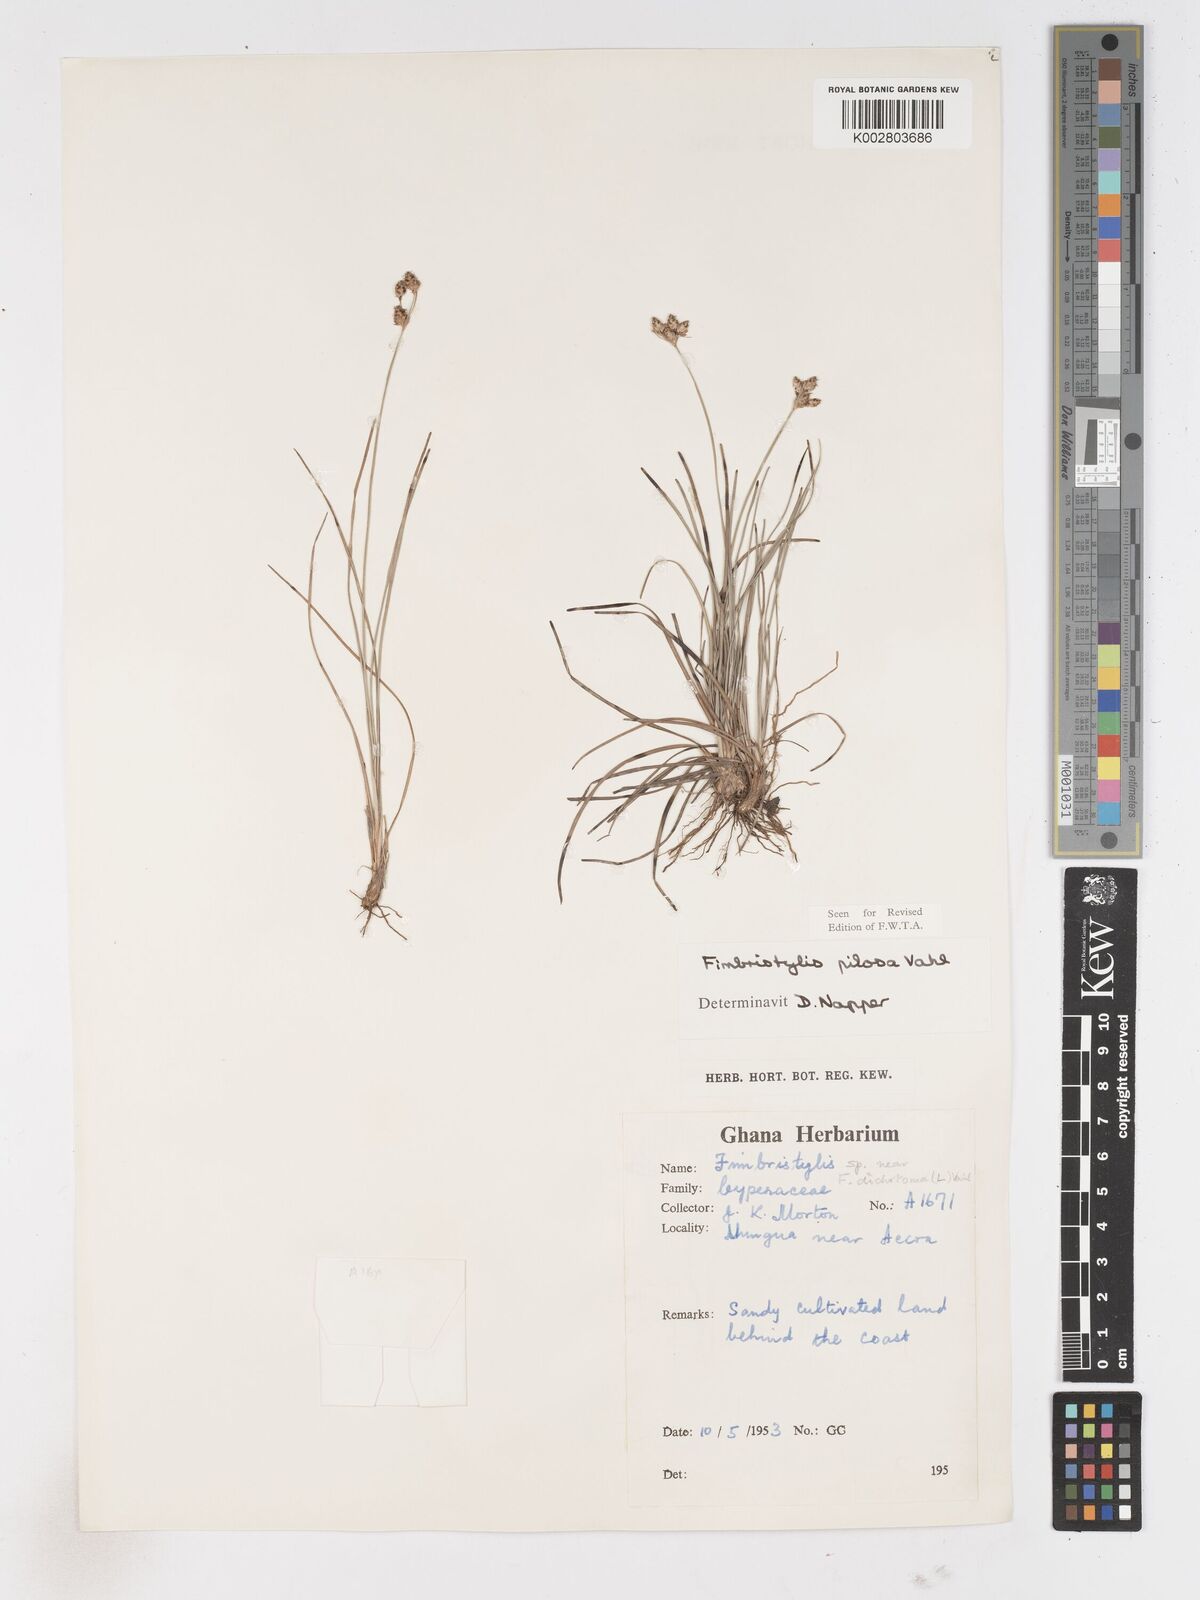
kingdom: Plantae
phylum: Tracheophyta
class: Liliopsida
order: Poales
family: Cyperaceae
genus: Fimbristylis
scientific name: Fimbristylis pilosa
